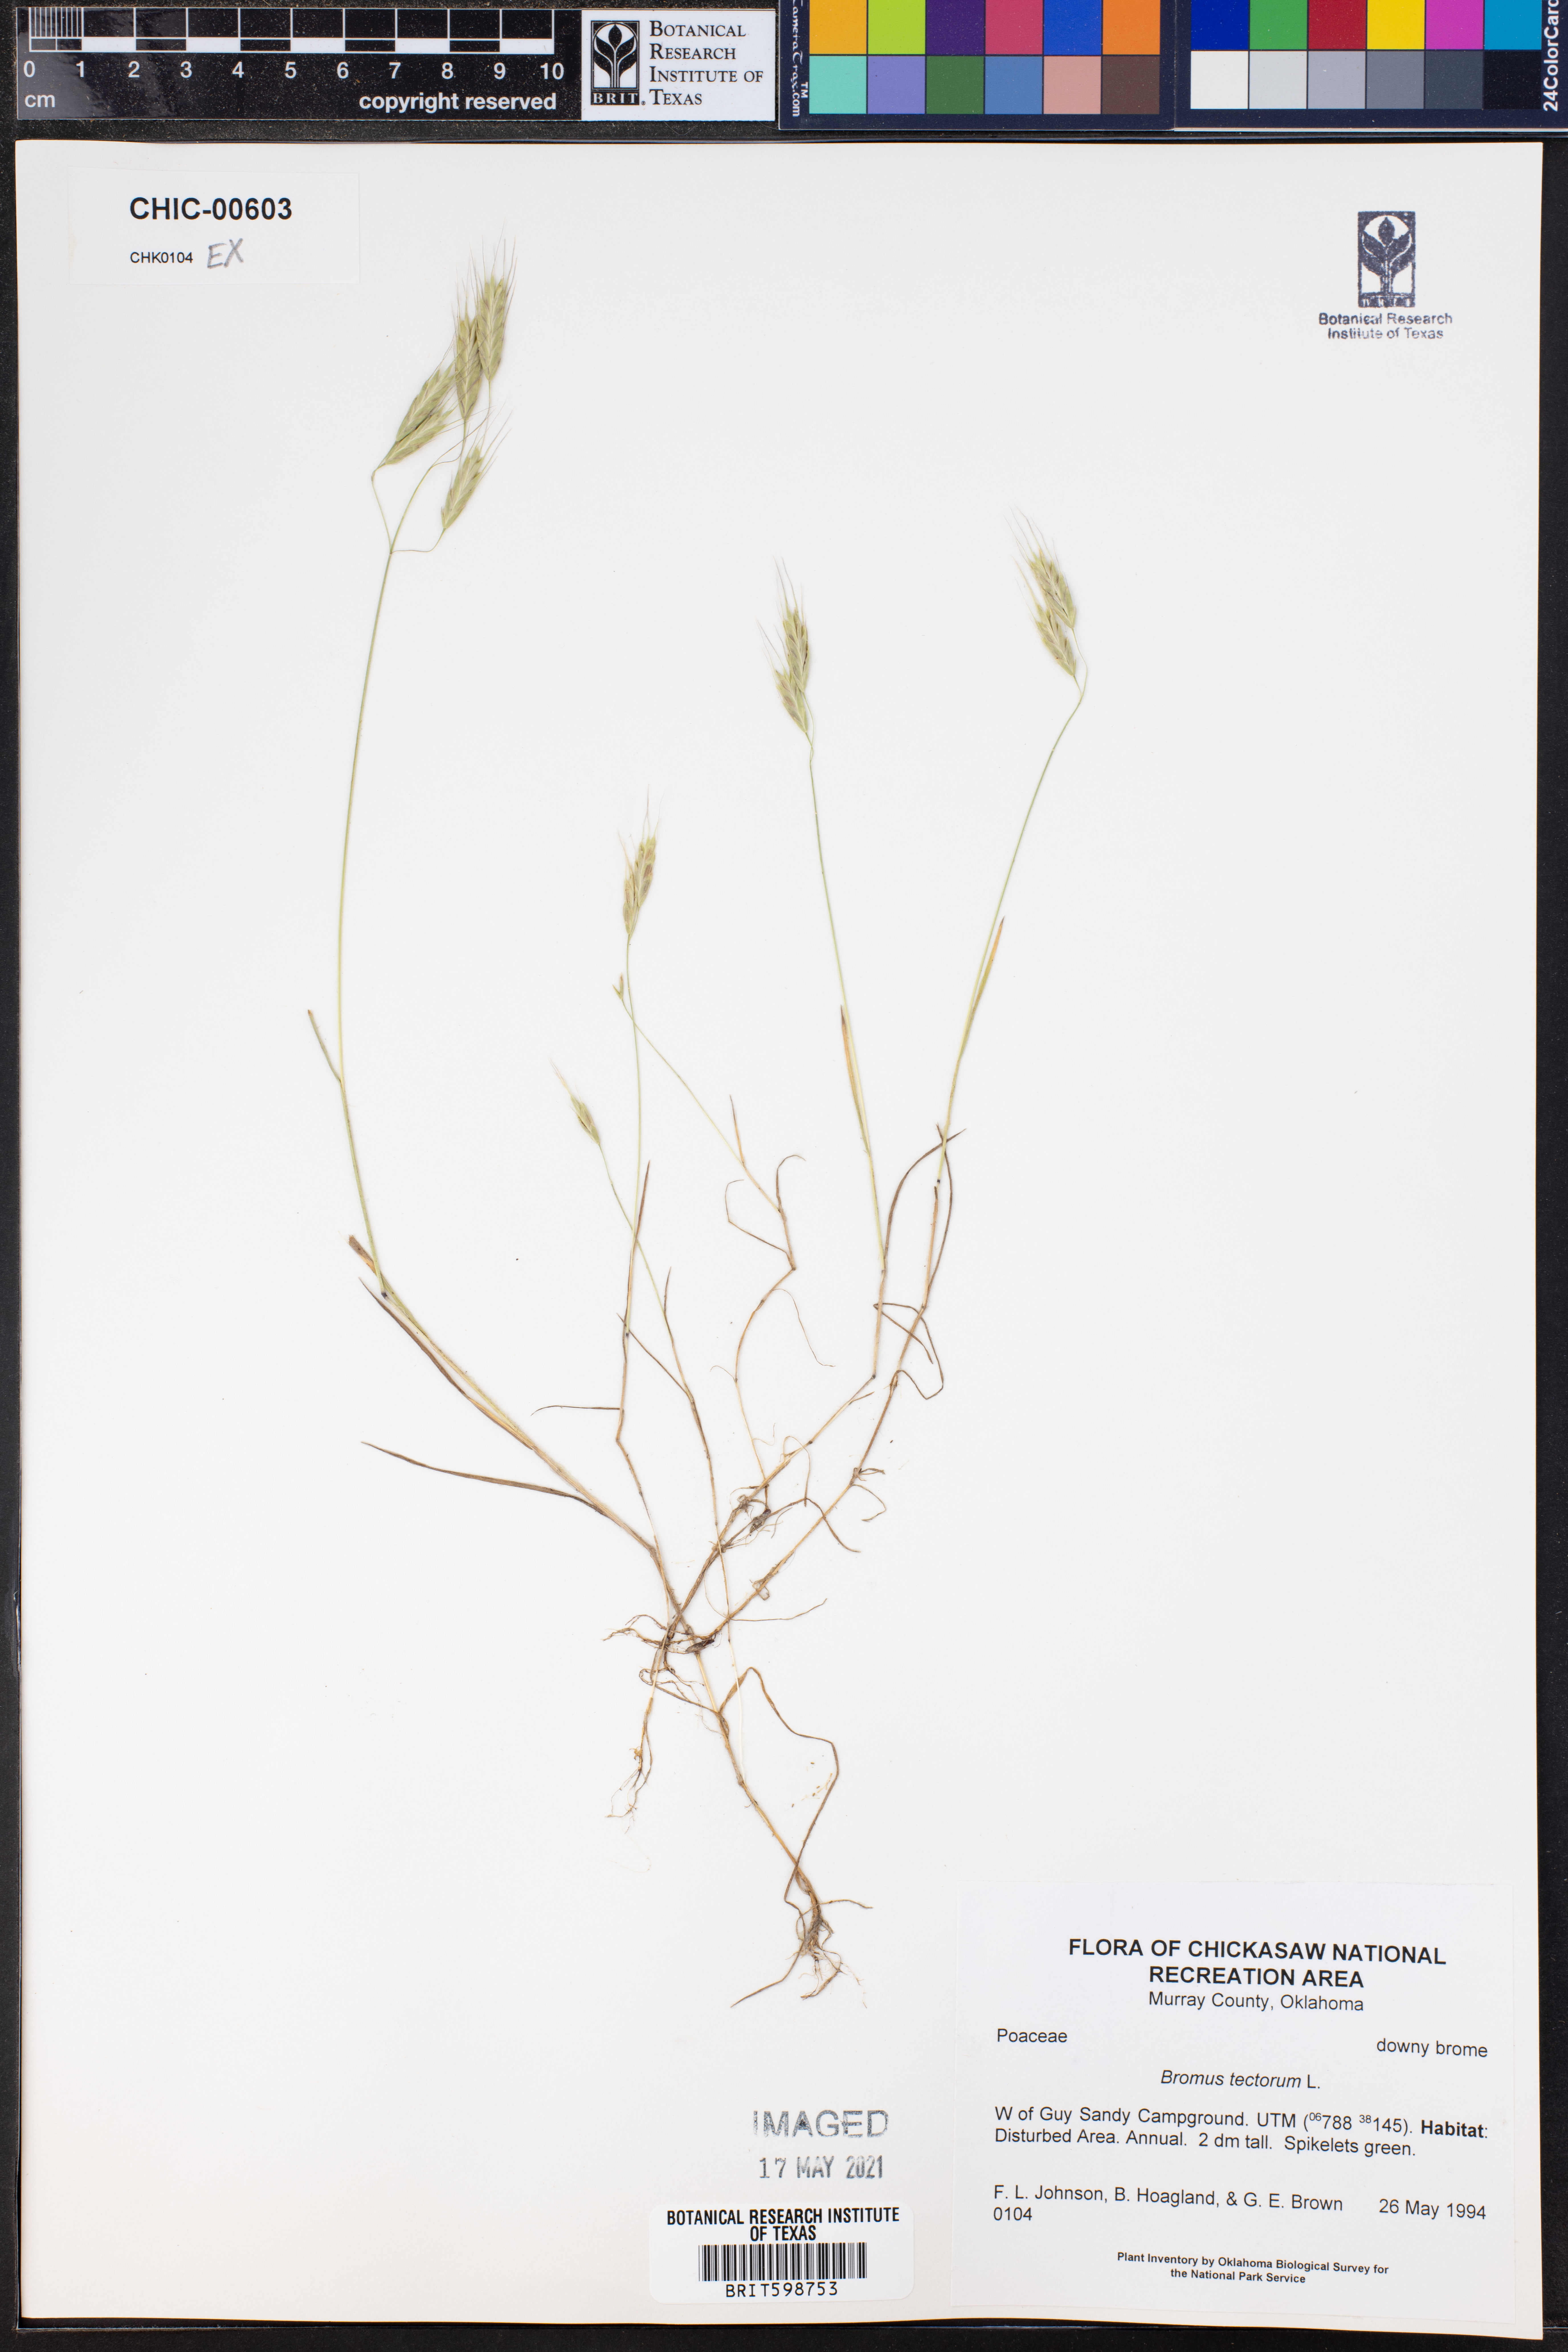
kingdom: Plantae
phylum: Tracheophyta
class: Liliopsida
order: Poales
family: Poaceae
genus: Bromus
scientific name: Bromus tectorum
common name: Cheatgrass
